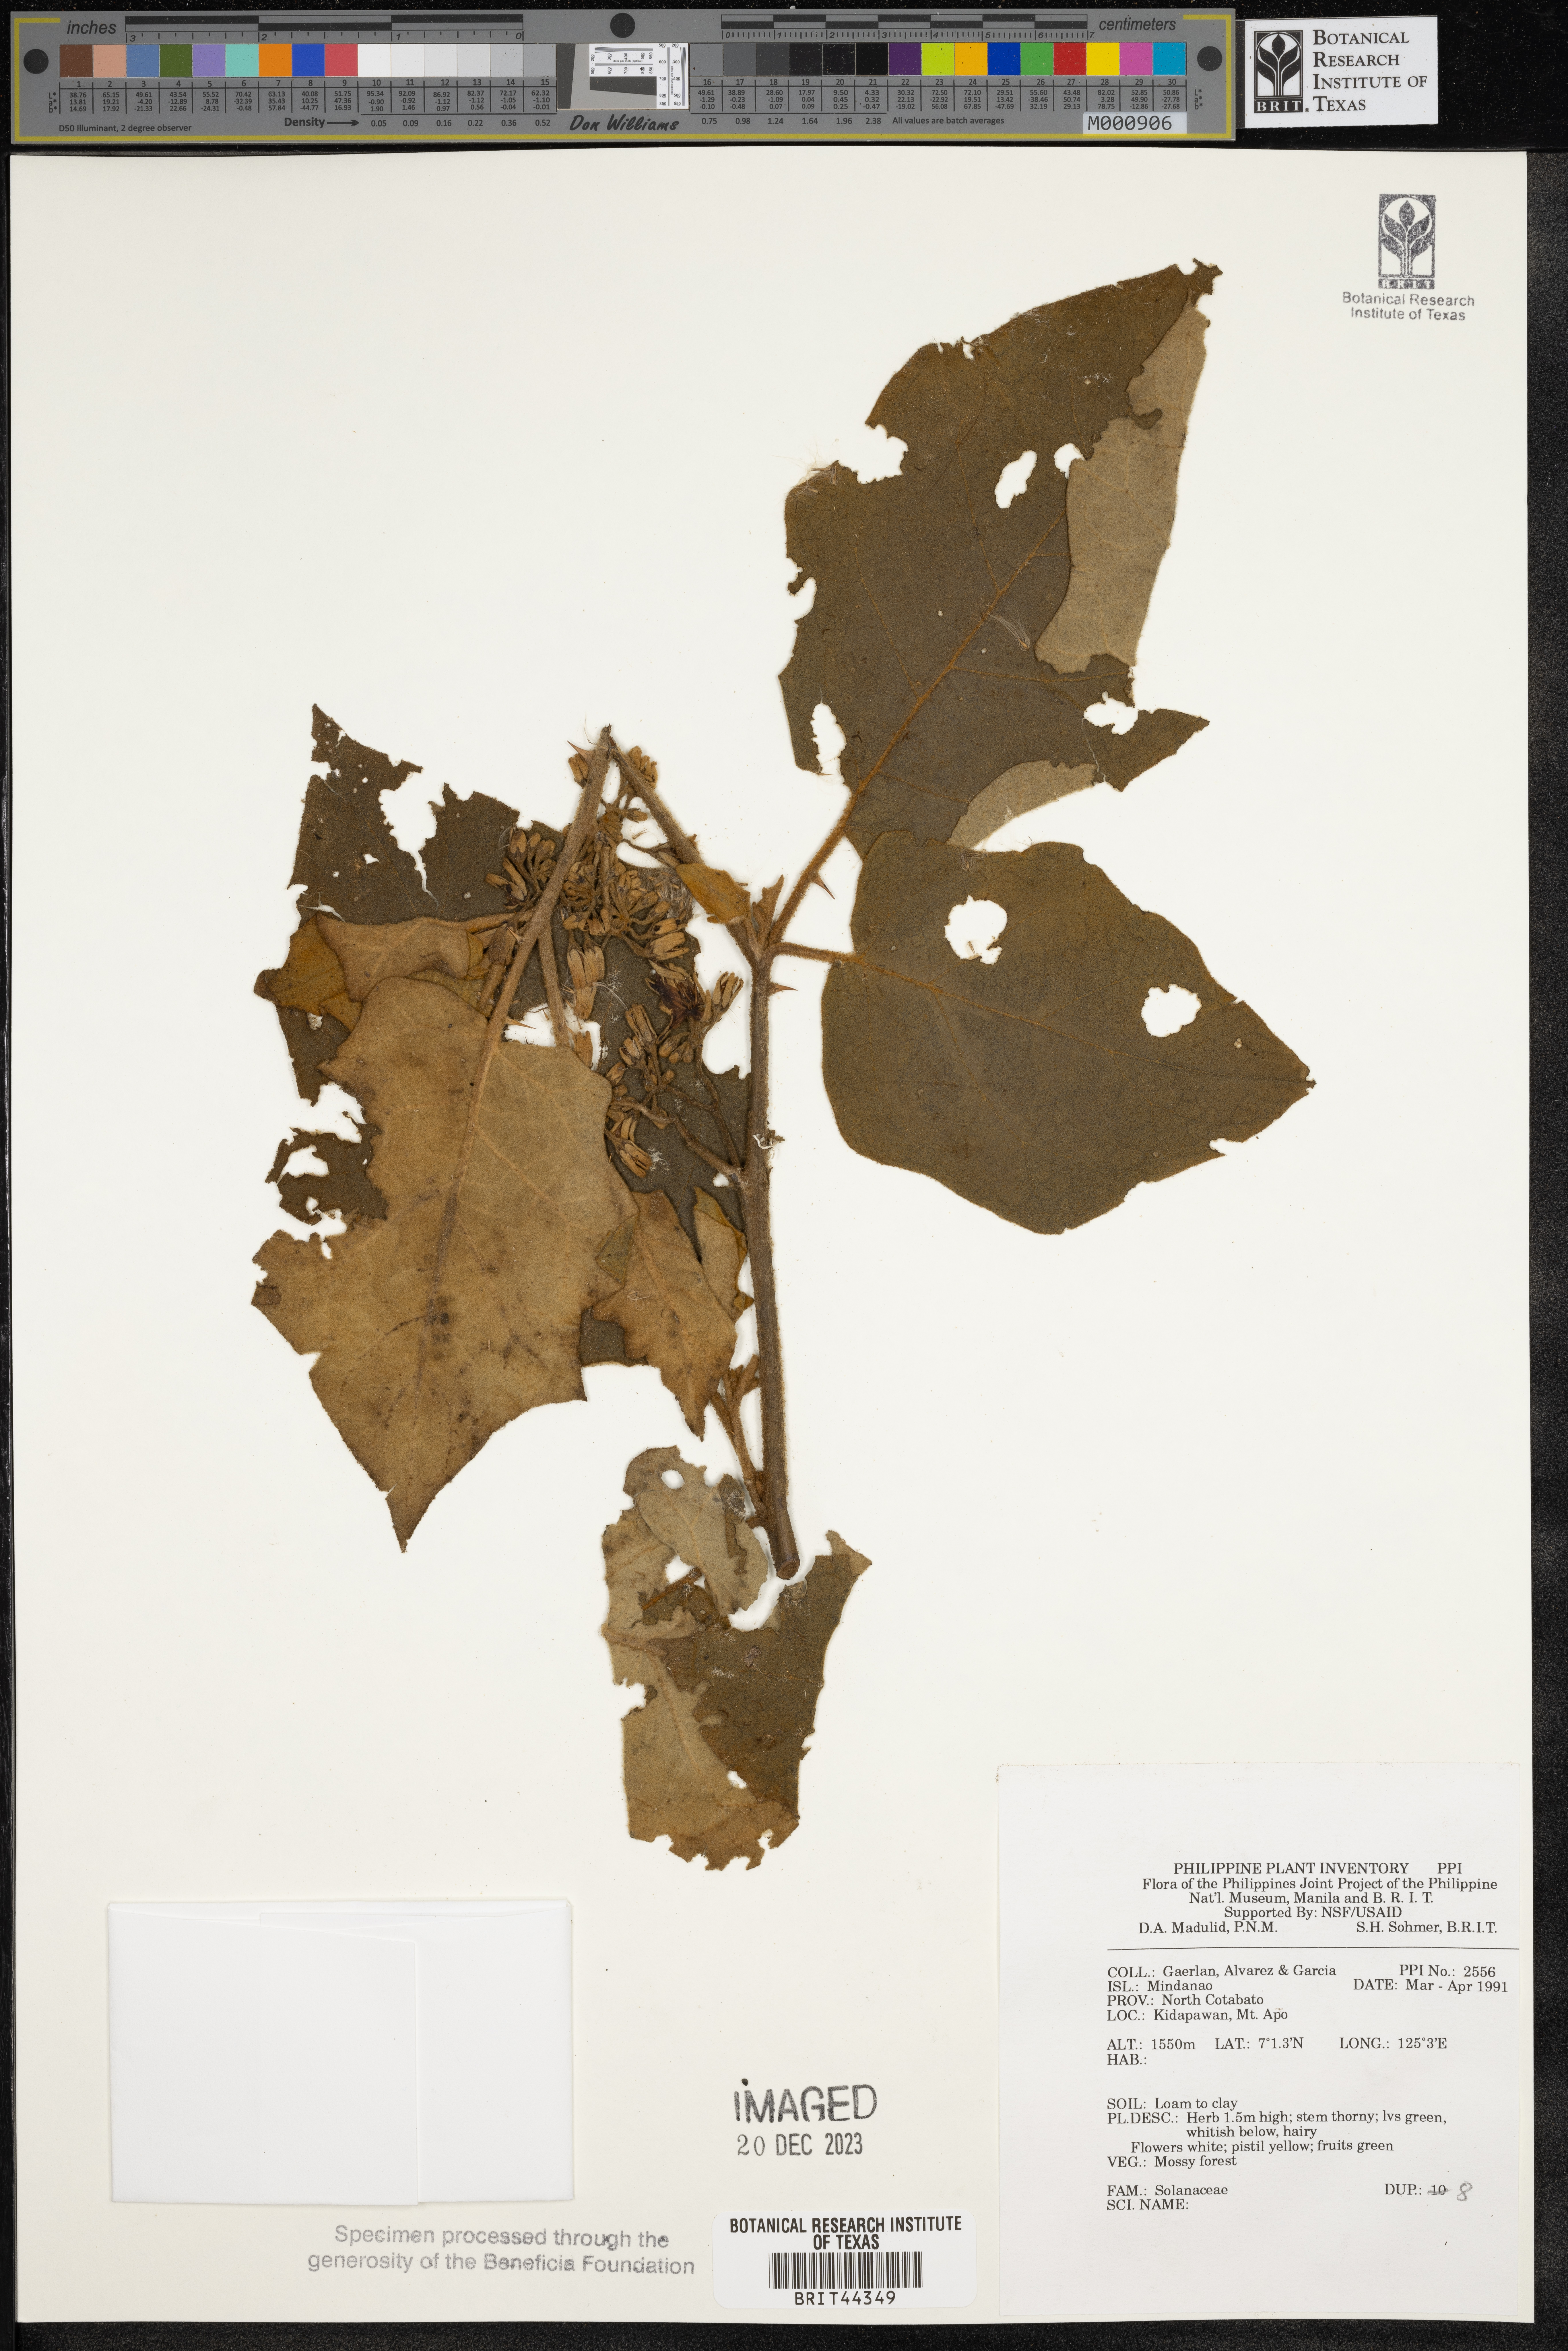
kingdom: Plantae
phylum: Tracheophyta
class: Magnoliopsida
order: Solanales
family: Solanaceae
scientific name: Solanaceae
